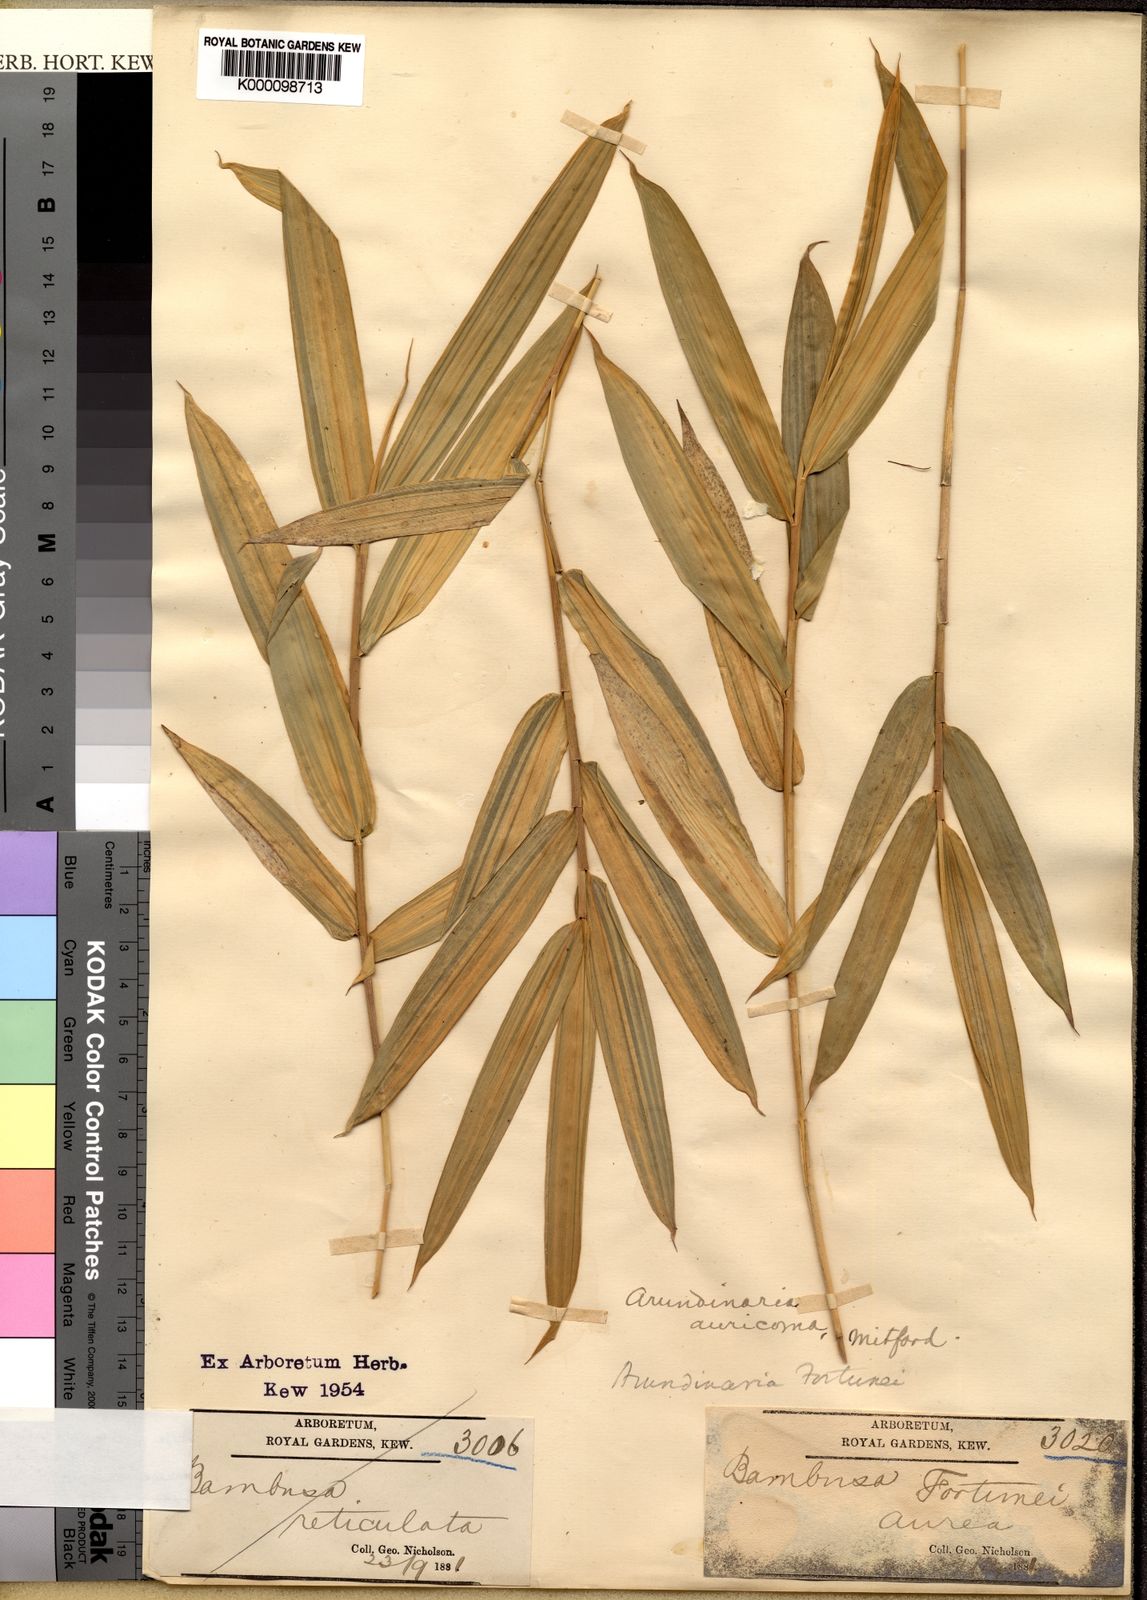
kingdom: Plantae
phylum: Tracheophyta
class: Liliopsida
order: Poales
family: Poaceae
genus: Bambusa
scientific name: Bambusa
